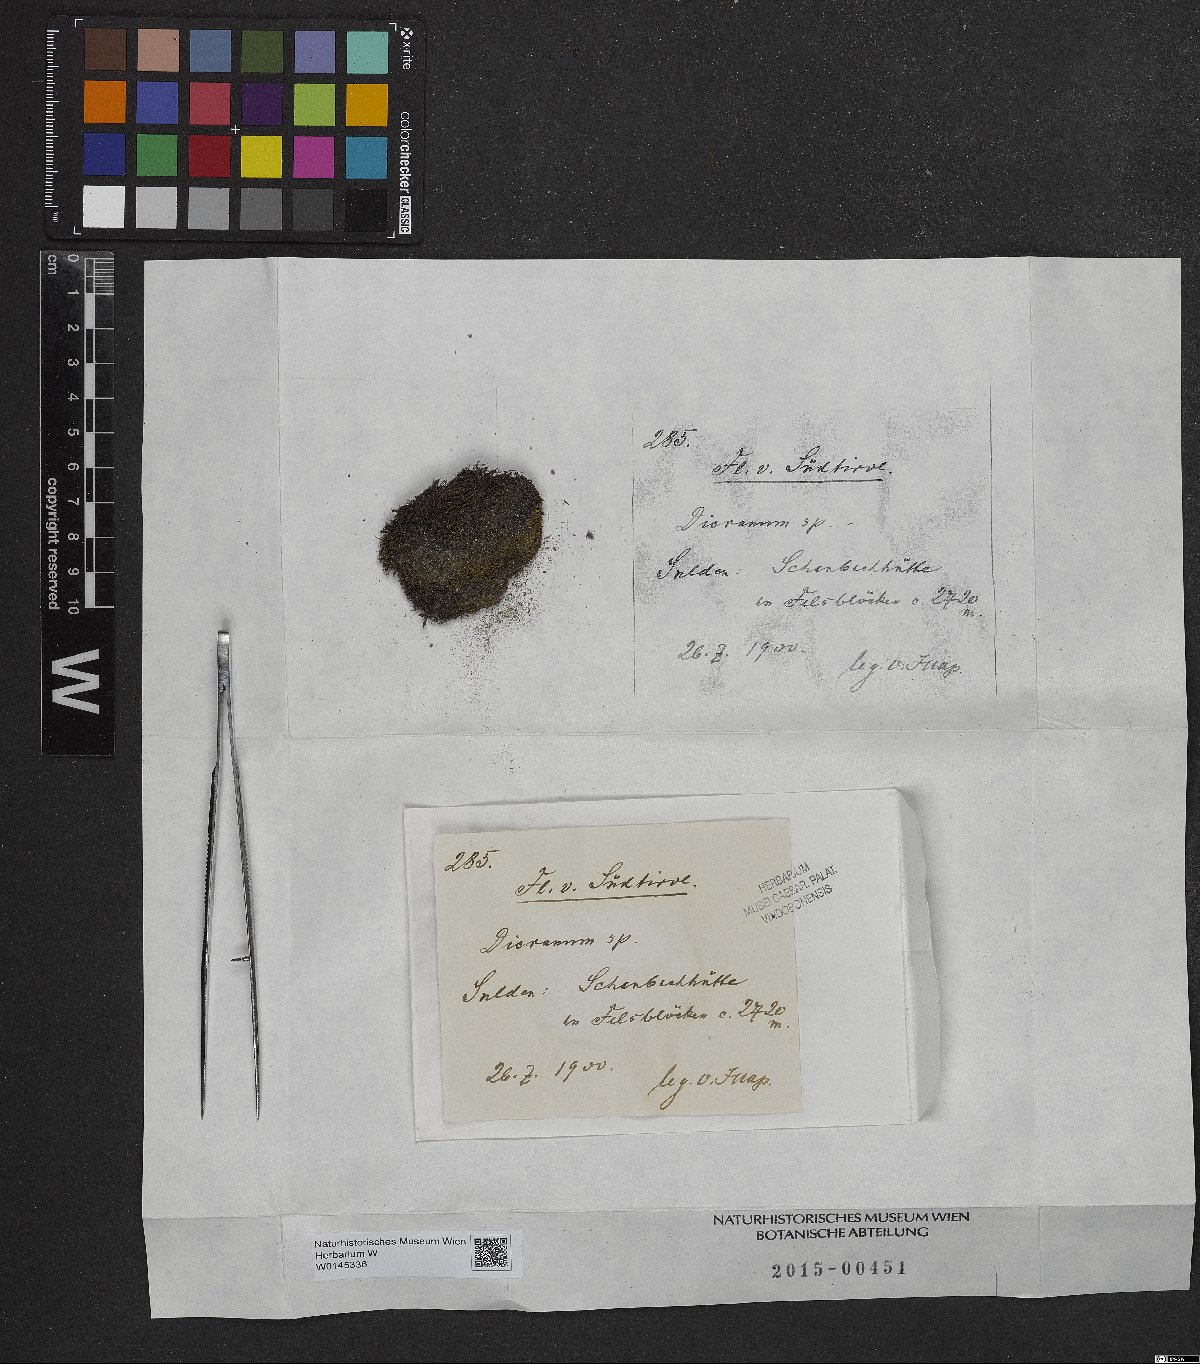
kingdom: Plantae
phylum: Bryophyta
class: Bryopsida
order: Dicranales
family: Dicranaceae
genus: Dicranum
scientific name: Dicranum
